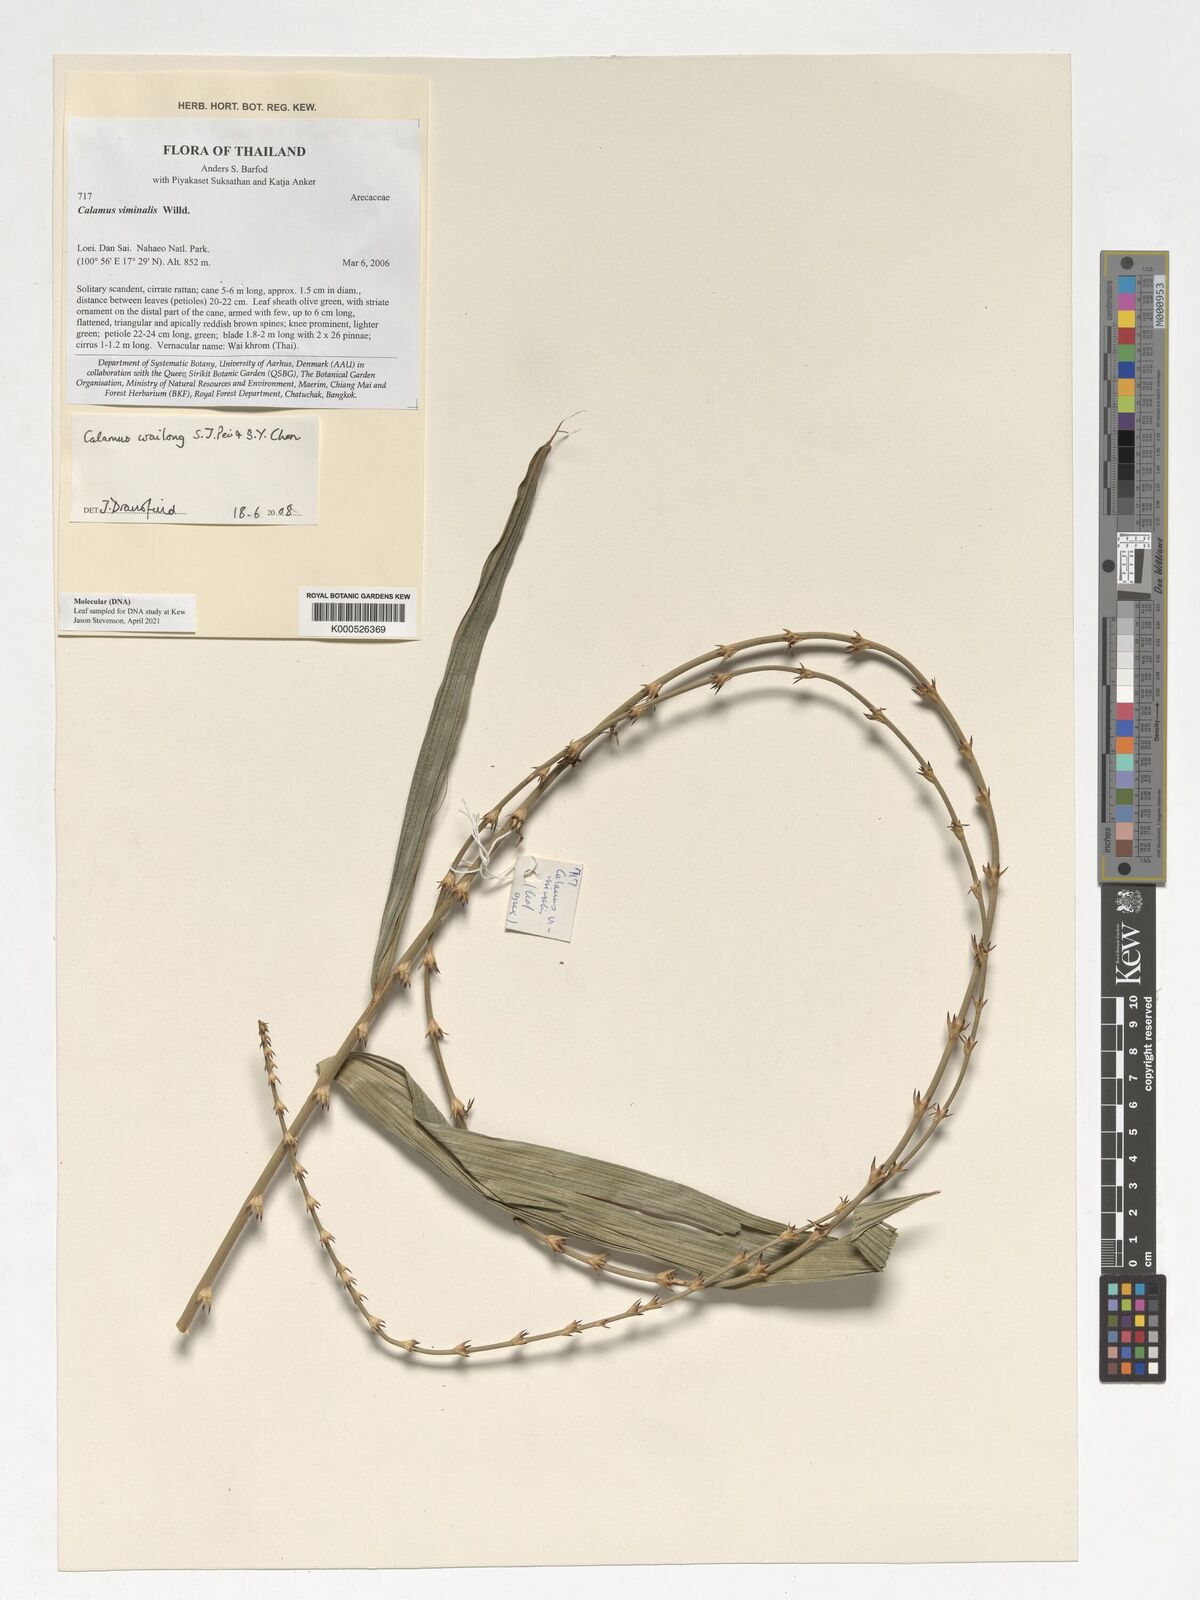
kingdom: Plantae
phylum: Tracheophyta
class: Liliopsida
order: Arecales
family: Arecaceae
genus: Calamus
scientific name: Calamus inermis
